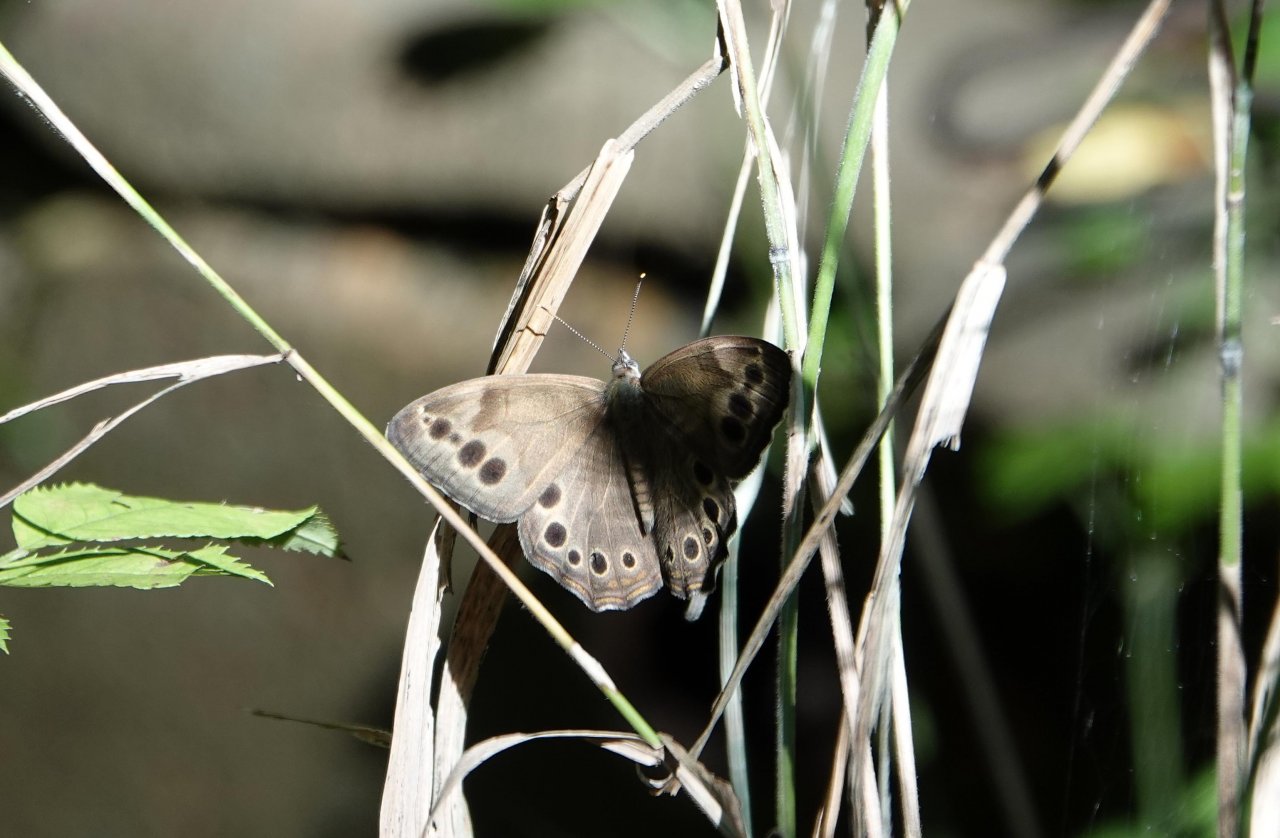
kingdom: Animalia
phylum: Arthropoda
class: Insecta
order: Lepidoptera
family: Nymphalidae
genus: Lethe
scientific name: Lethe anthedon
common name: Northern Pearly-Eye
